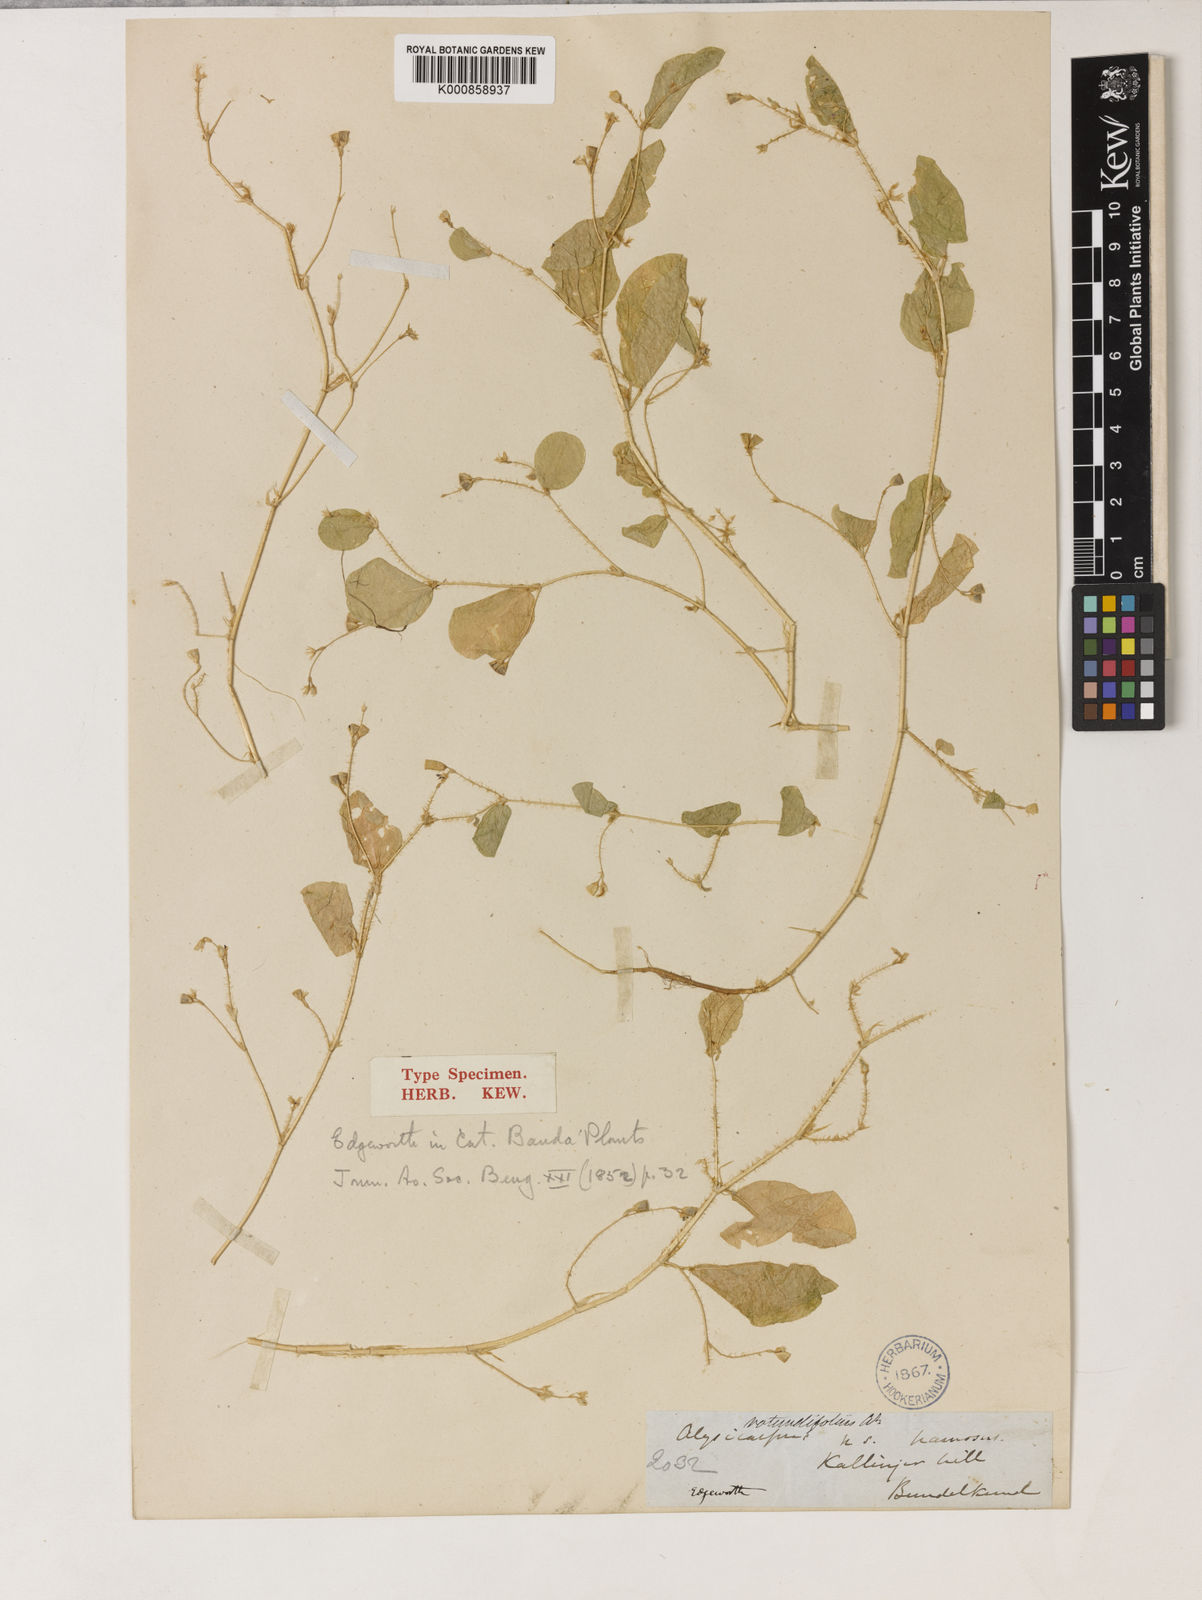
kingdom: Plantae
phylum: Tracheophyta
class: Magnoliopsida
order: Fabales
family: Fabaceae
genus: Alysicarpus
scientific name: Alysicarpus hamosus
